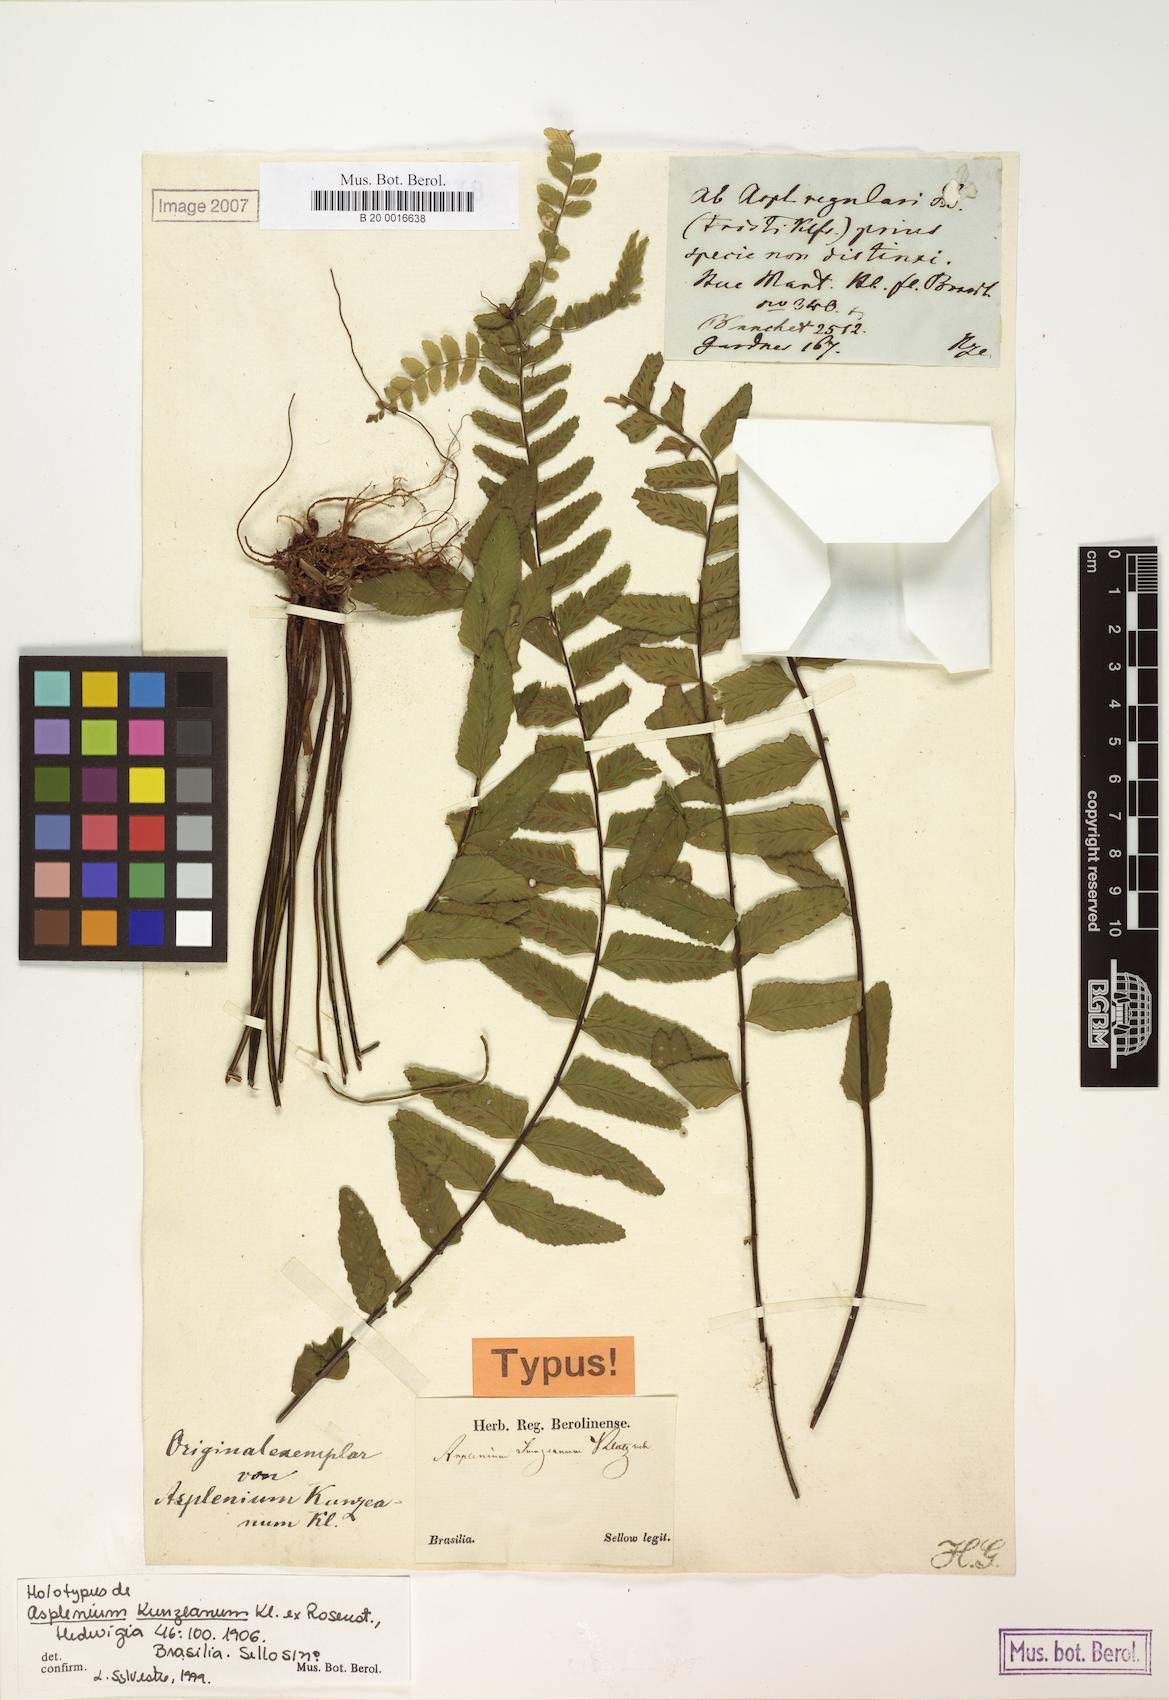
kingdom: Plantae
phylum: Tracheophyta
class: Polypodiopsida
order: Polypodiales
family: Aspleniaceae
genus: Asplenium
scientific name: Asplenium kunzeanum
